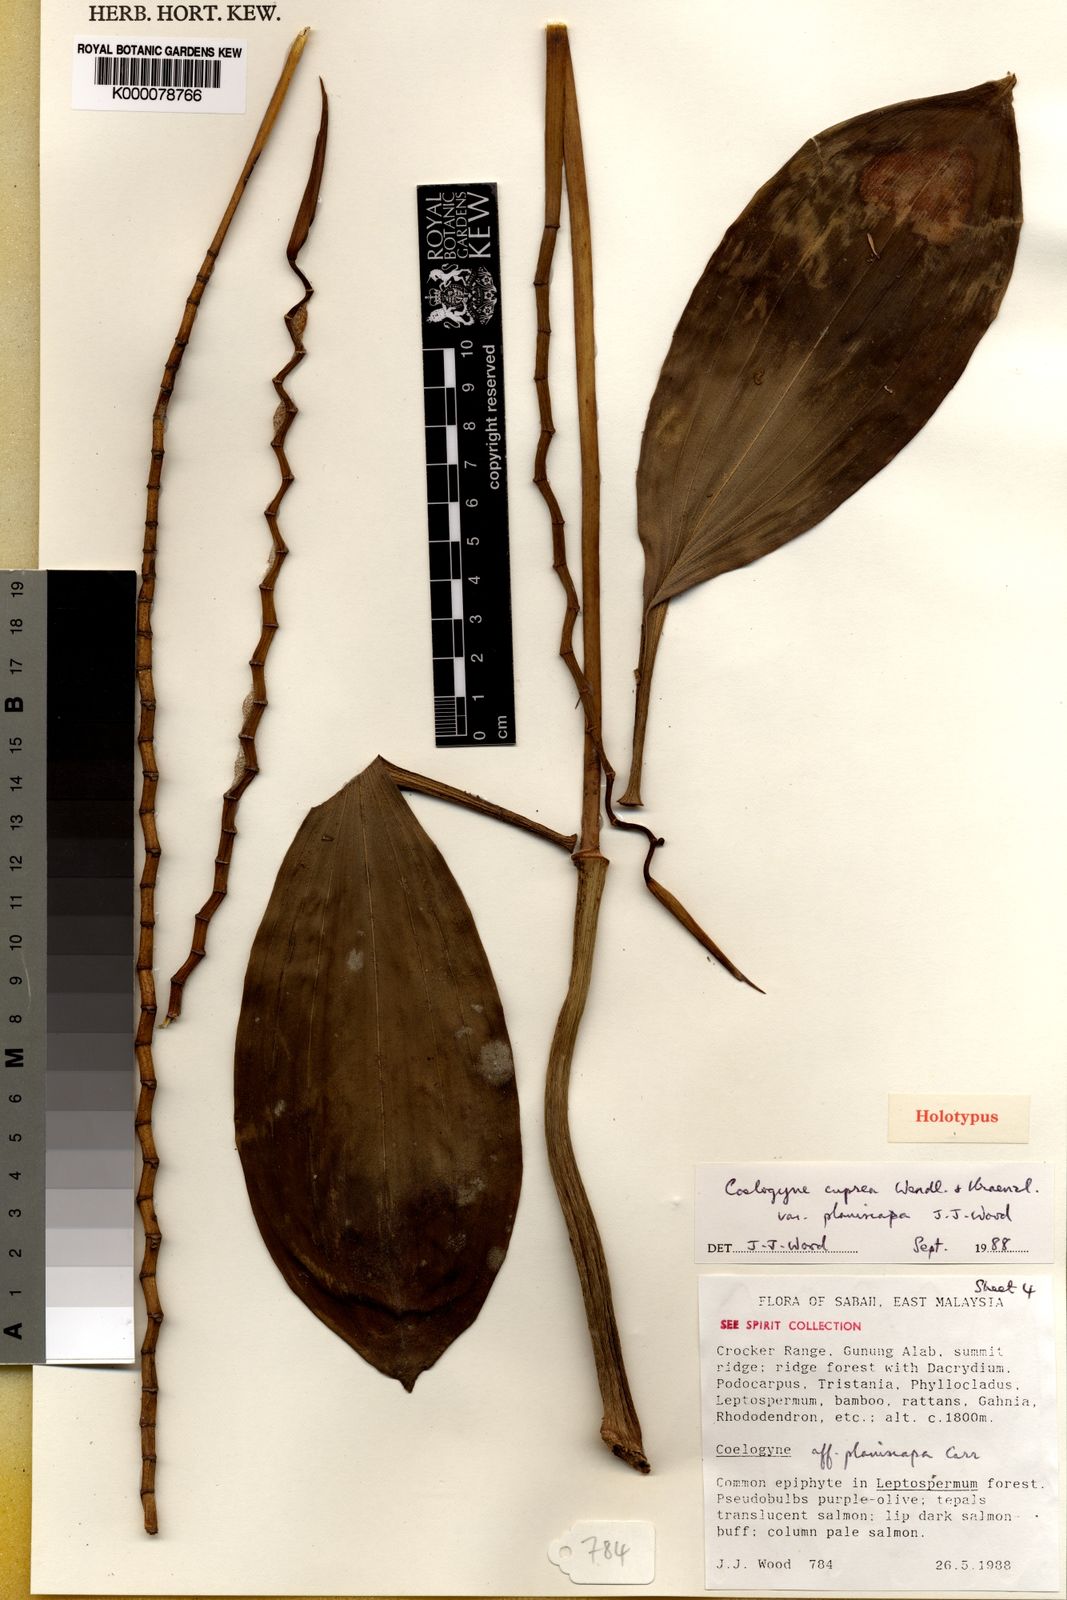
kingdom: Plantae
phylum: Tracheophyta
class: Liliopsida
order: Asparagales
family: Orchidaceae
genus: Coelogyne
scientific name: Coelogyne cuprea
